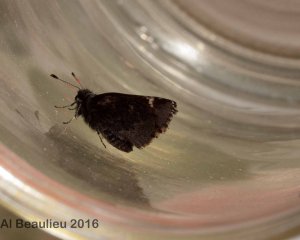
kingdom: Animalia
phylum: Arthropoda
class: Insecta
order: Lepidoptera
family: Hesperiidae
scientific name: Hesperiidae
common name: Skippers
